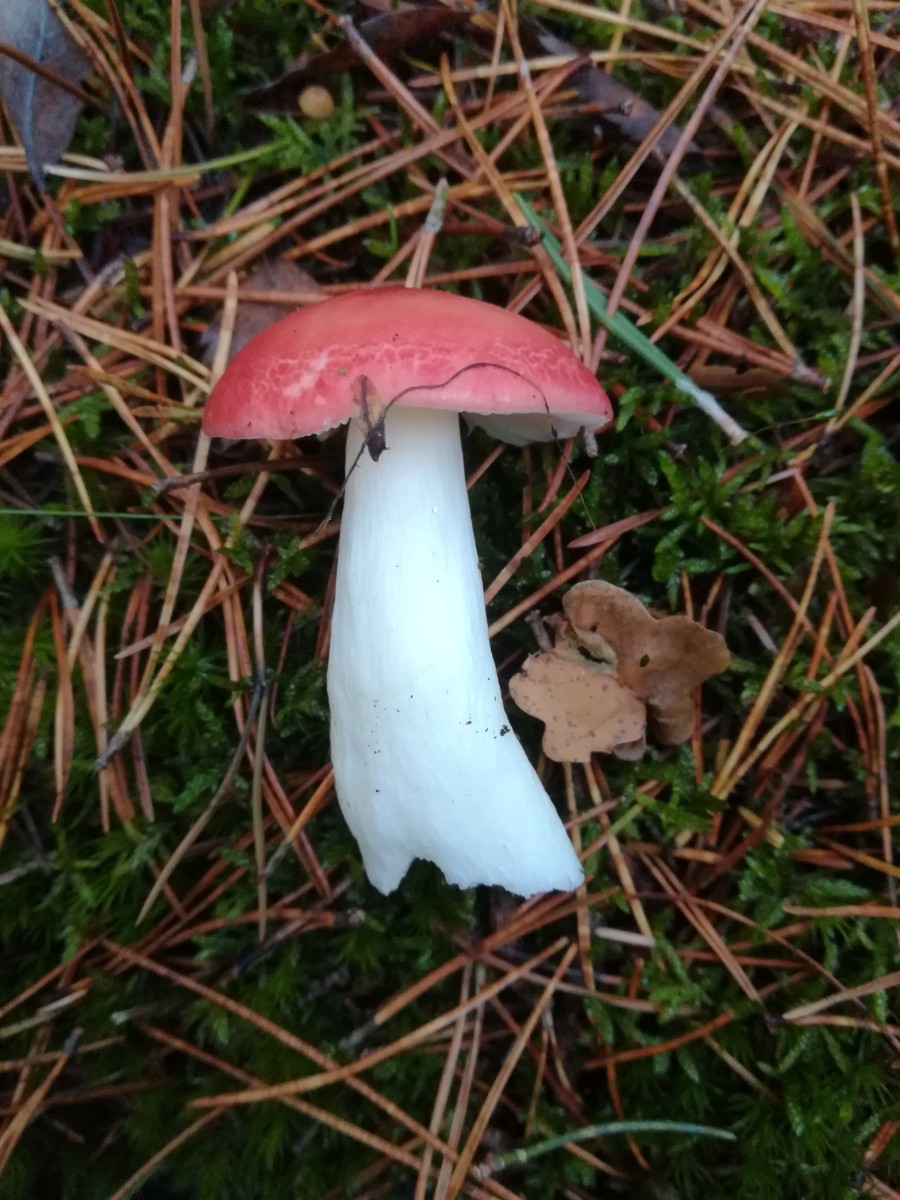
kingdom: Fungi
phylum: Basidiomycota
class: Agaricomycetes
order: Russulales
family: Russulaceae
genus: Russula
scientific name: Russula emetica
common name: stor gift-skørhat
